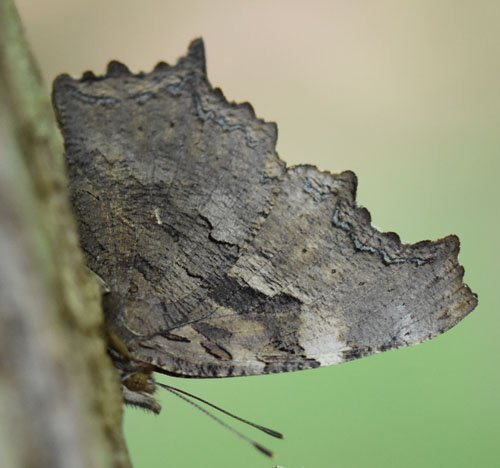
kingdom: Animalia
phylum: Arthropoda
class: Insecta
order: Lepidoptera
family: Nymphalidae
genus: Polygonia
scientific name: Polygonia vaualbum
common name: Compton Tortoiseshell
